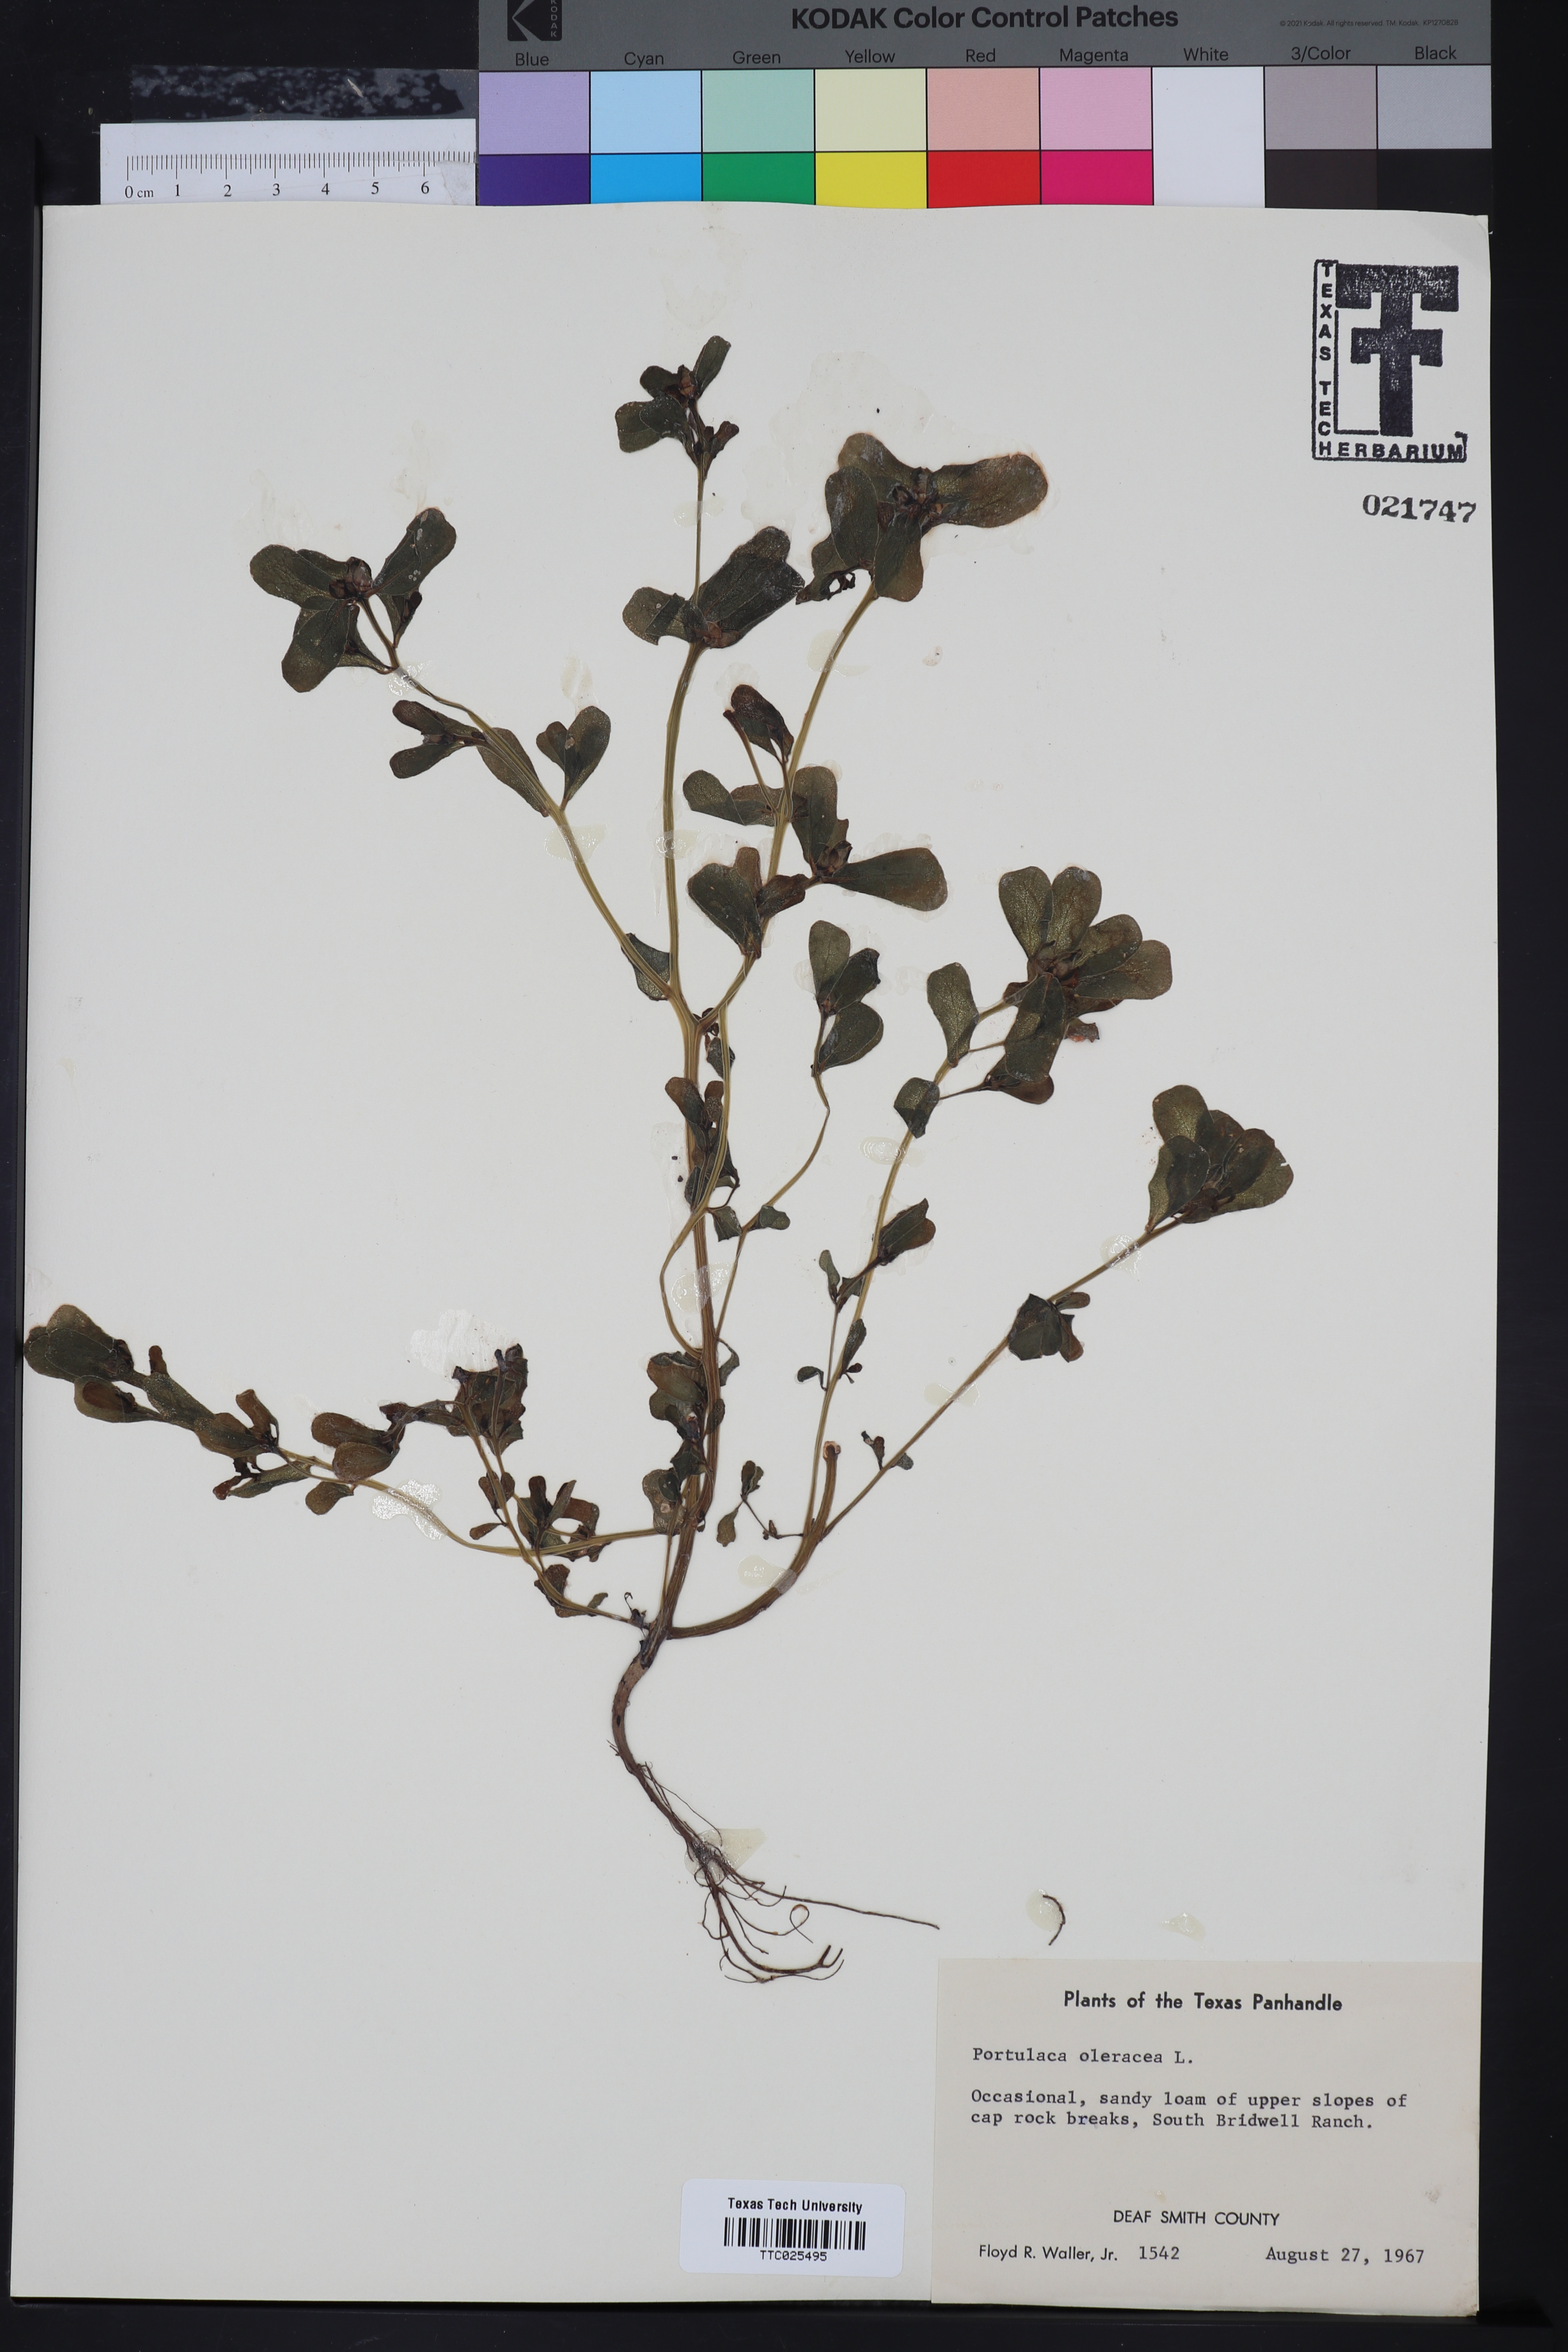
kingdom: Plantae
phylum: Tracheophyta
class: Magnoliopsida
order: Caryophyllales
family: Portulacaceae
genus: Portulaca
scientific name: Portulaca oleracea
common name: Common purslane
